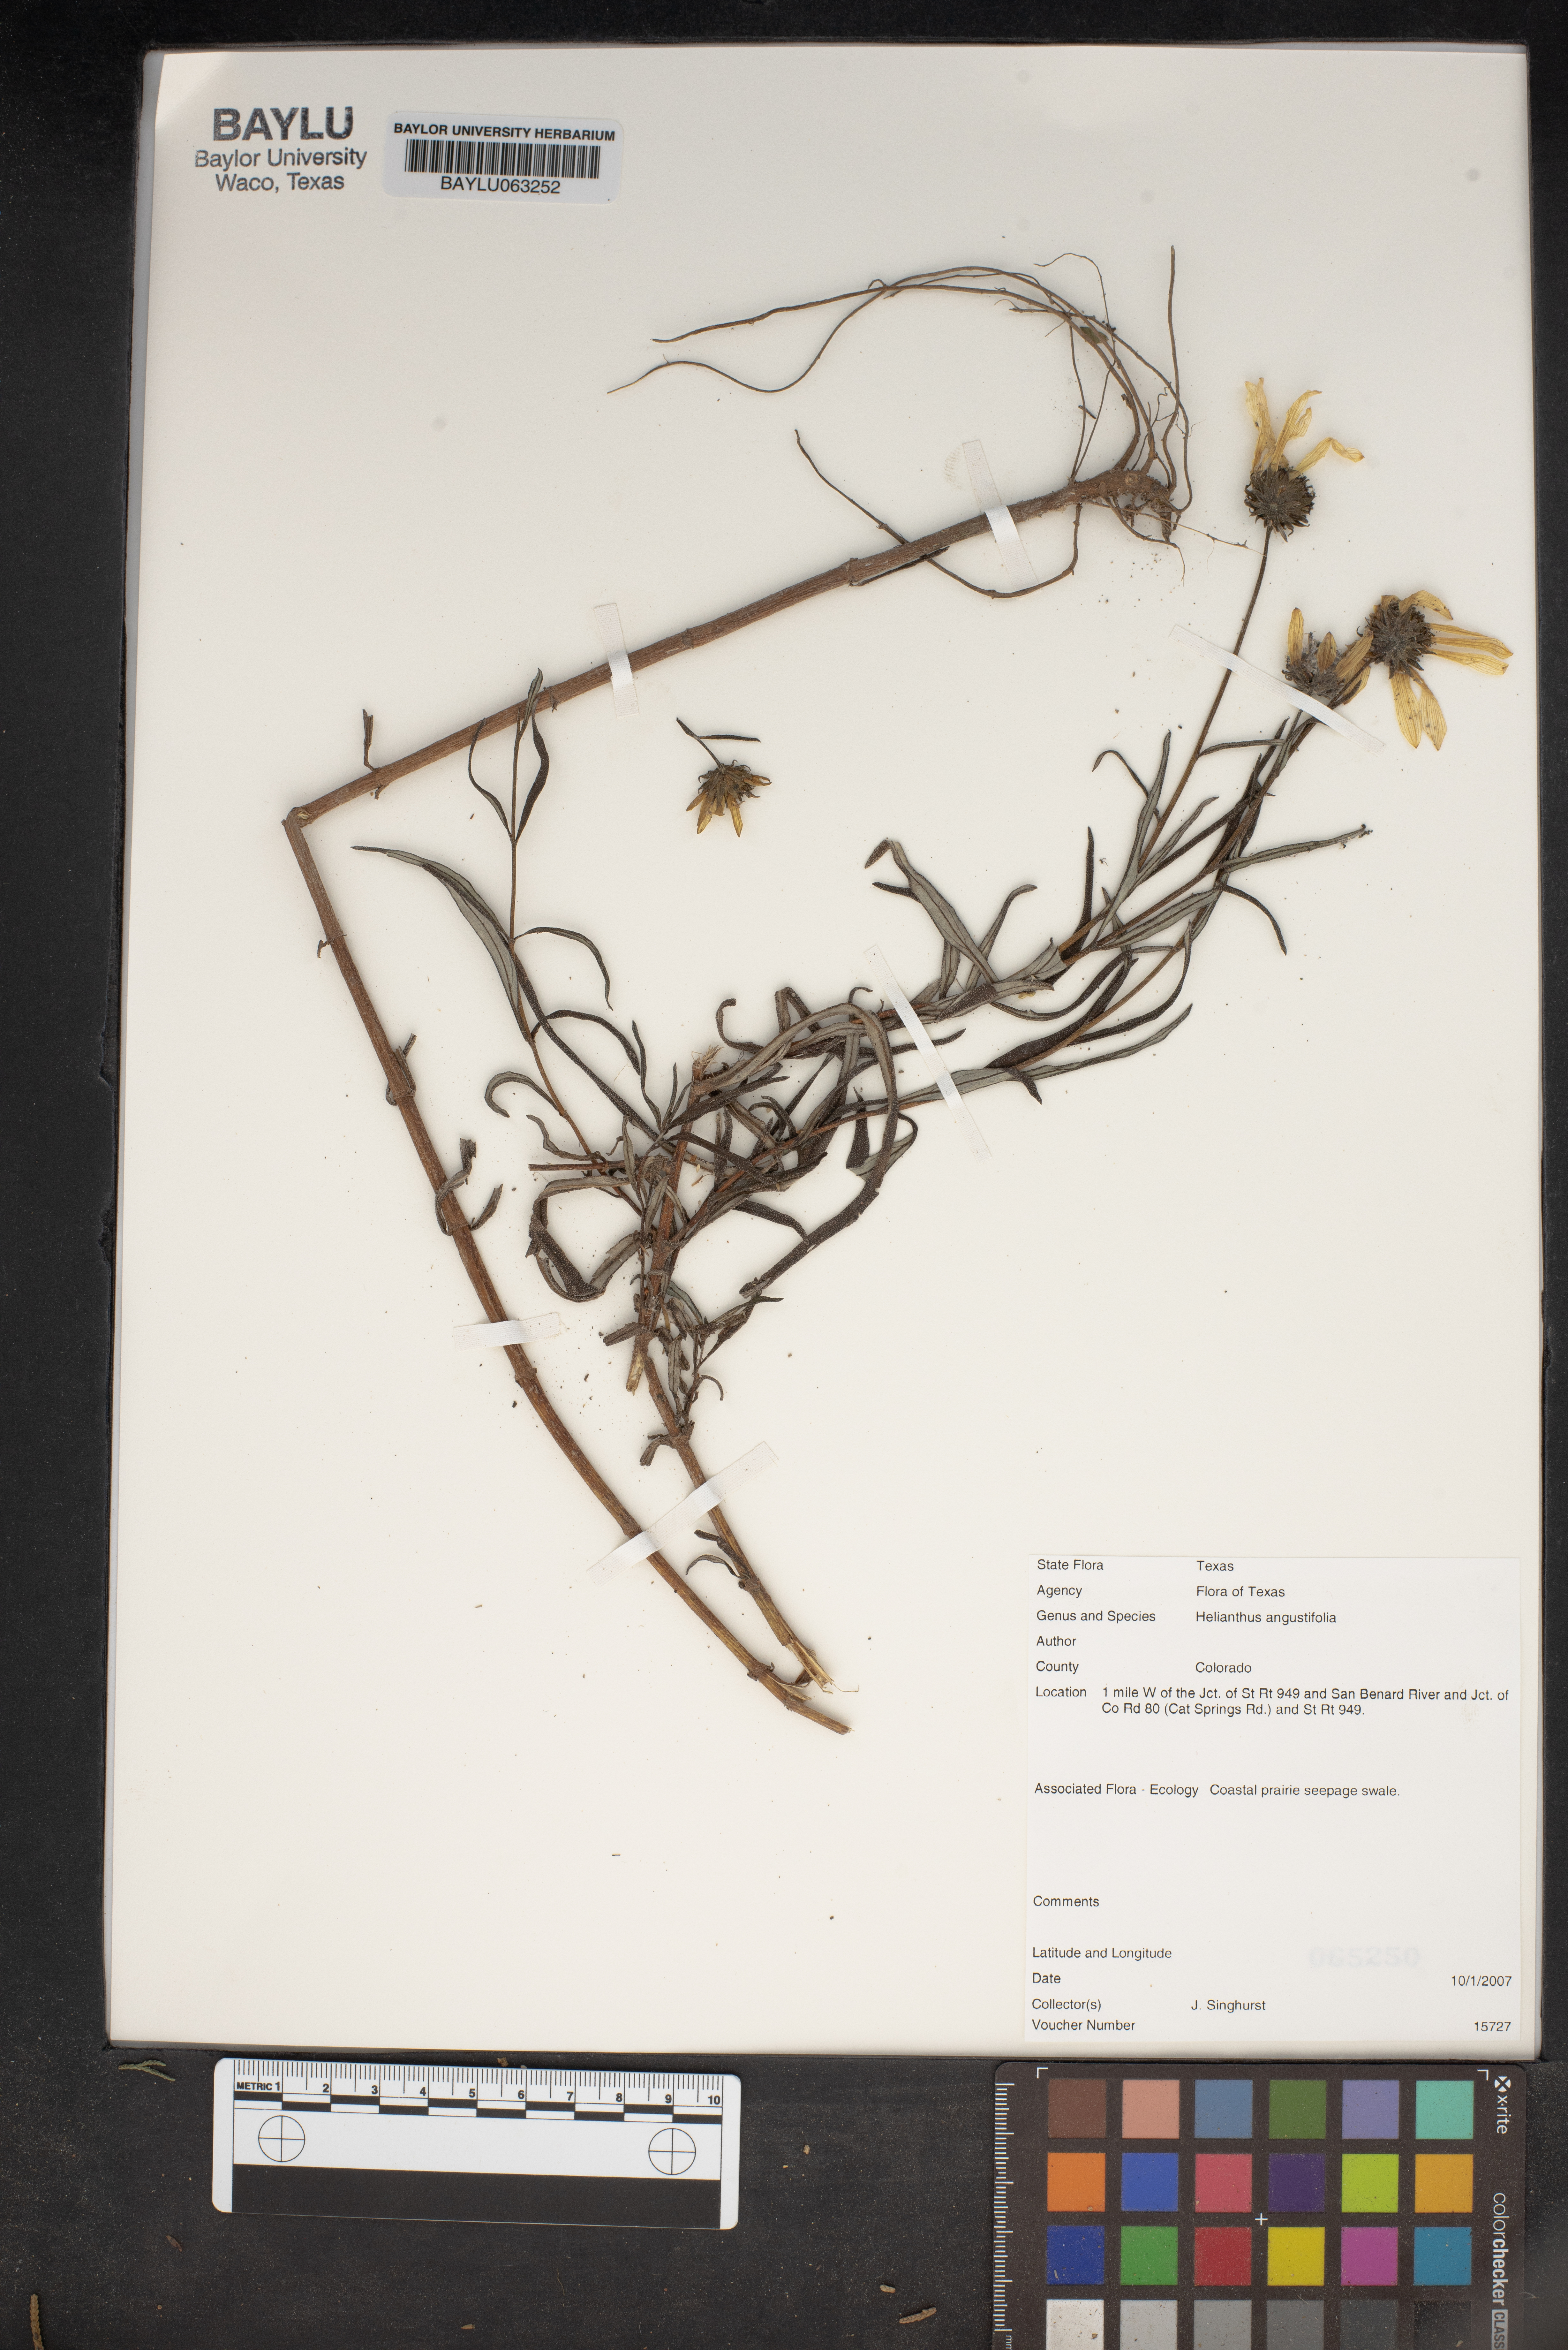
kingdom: Plantae
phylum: Tracheophyta
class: Magnoliopsida
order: Asterales
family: Asteraceae
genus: Helianthus
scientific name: Helianthus angustifolius
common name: Swamp sunflower
